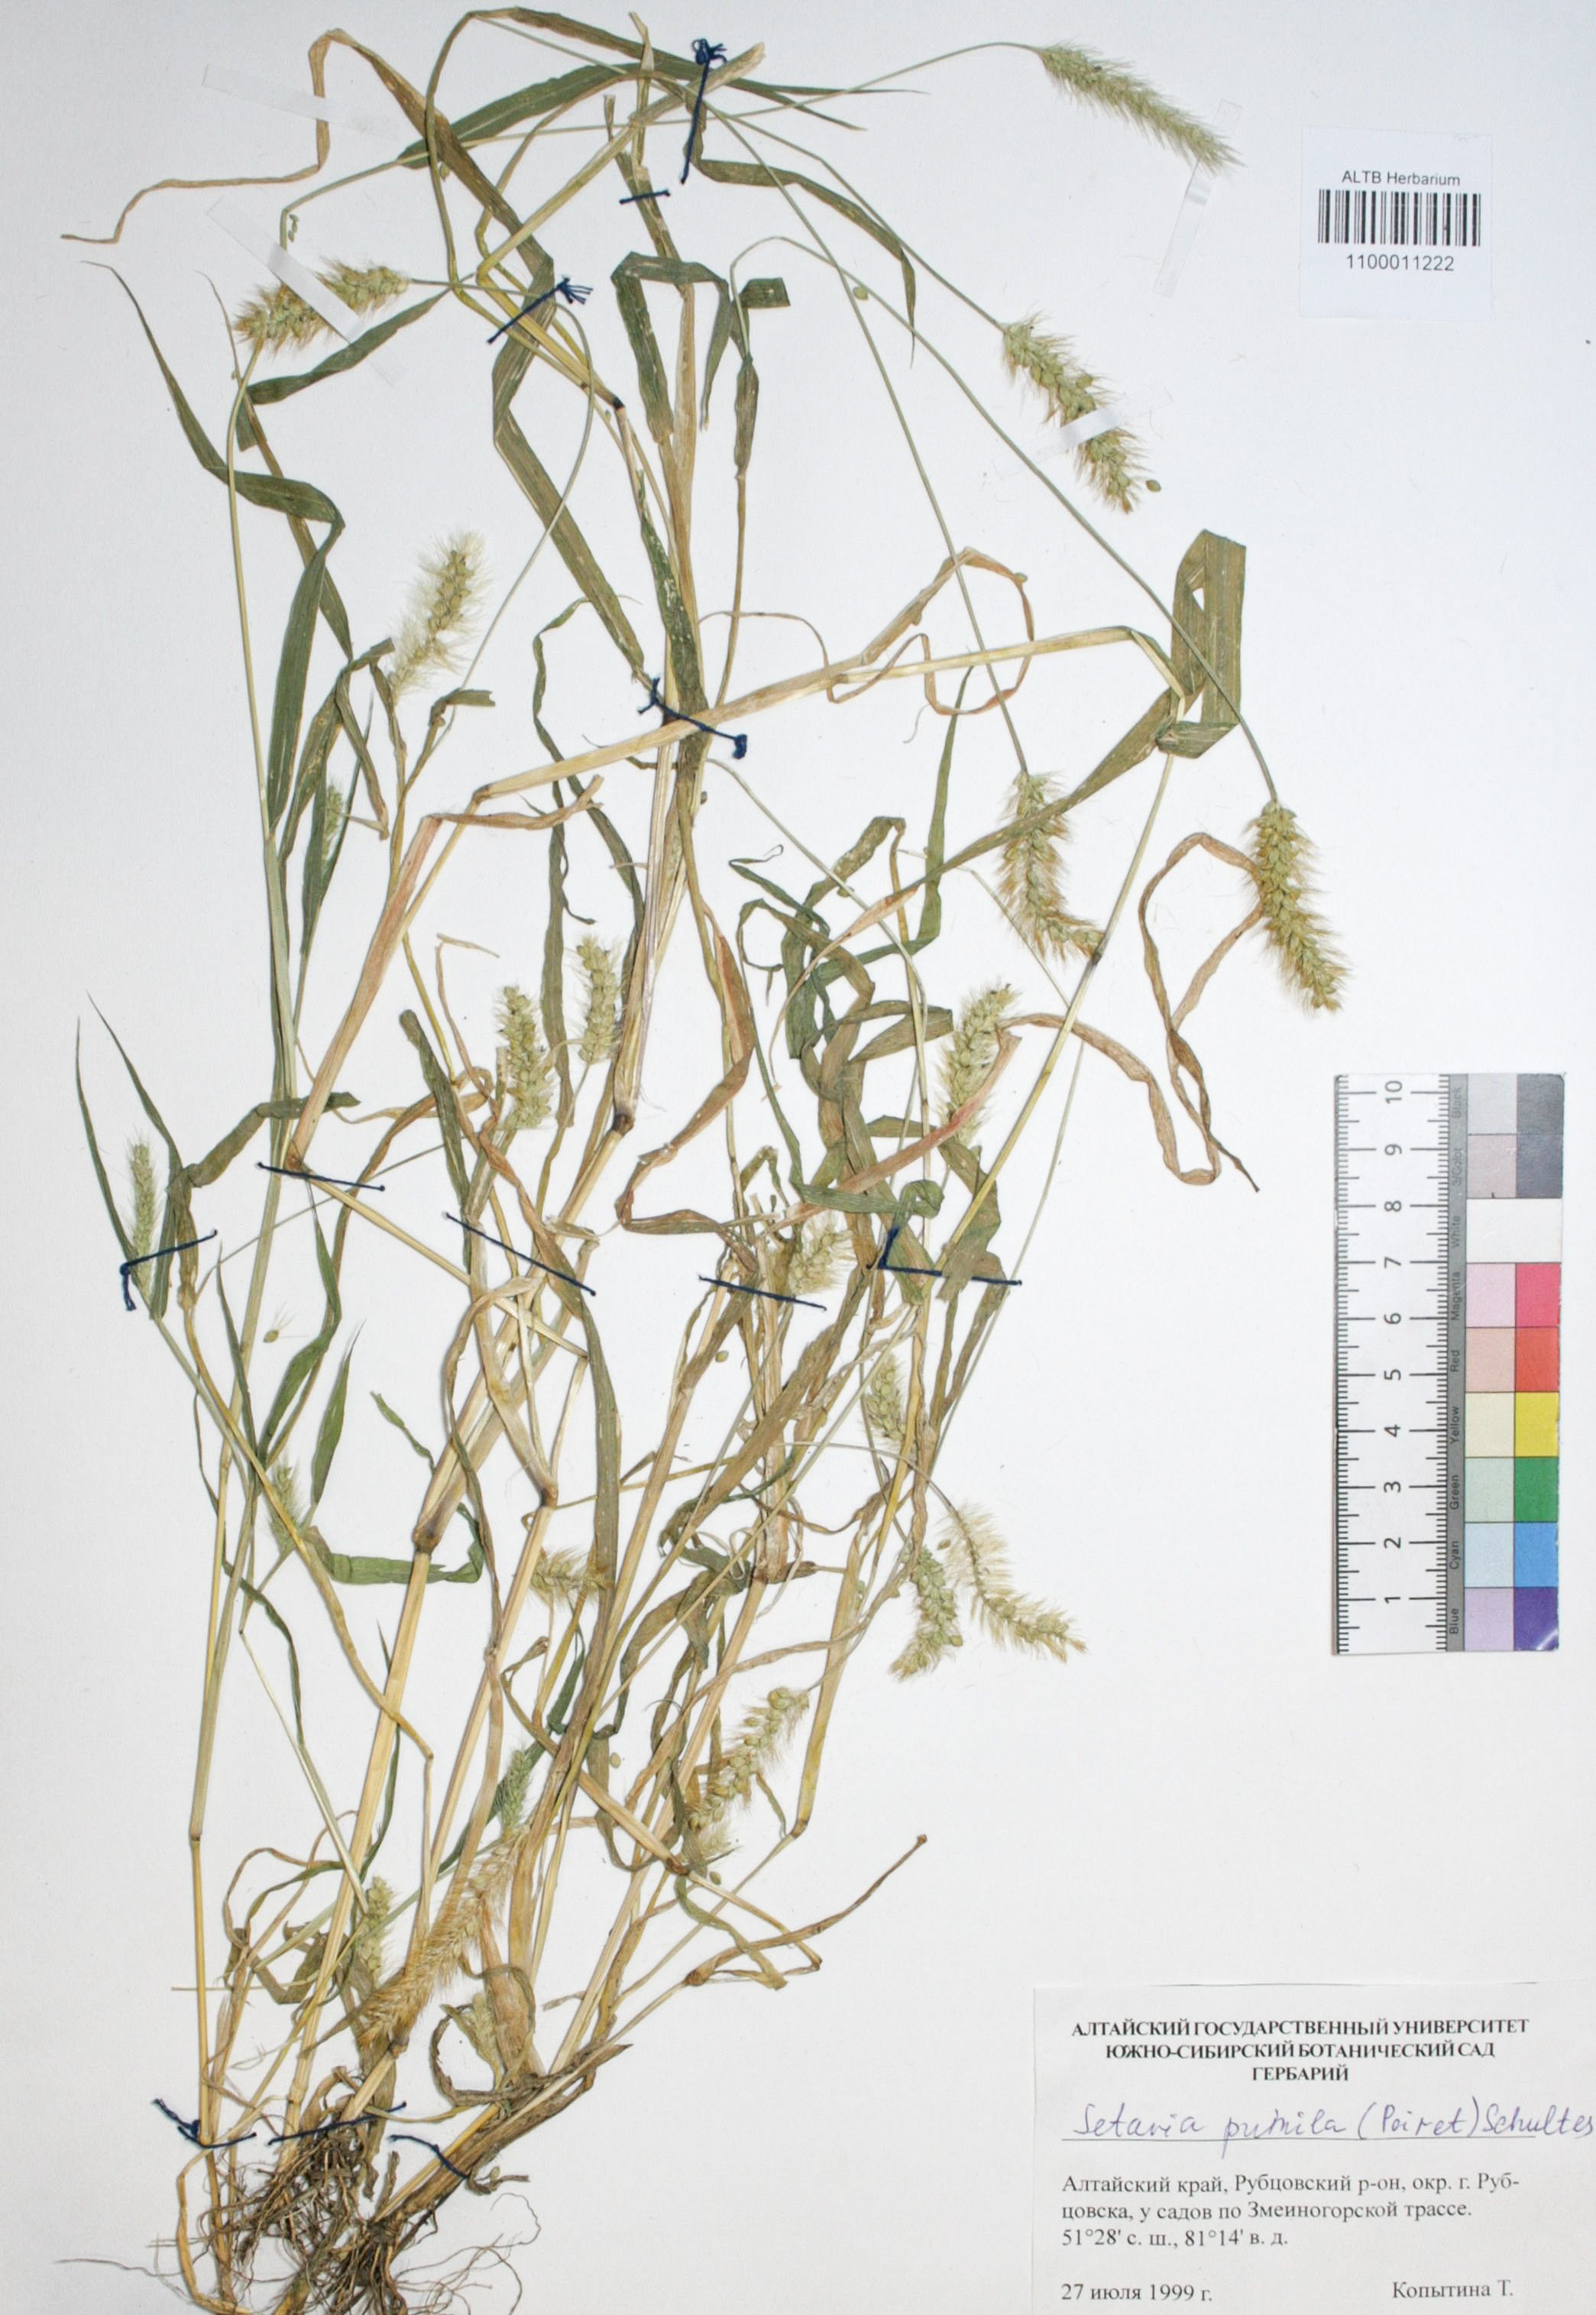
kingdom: Plantae
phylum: Tracheophyta
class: Liliopsida
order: Poales
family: Poaceae
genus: Setaria
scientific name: Setaria pumila
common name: Yellow bristle-grass
